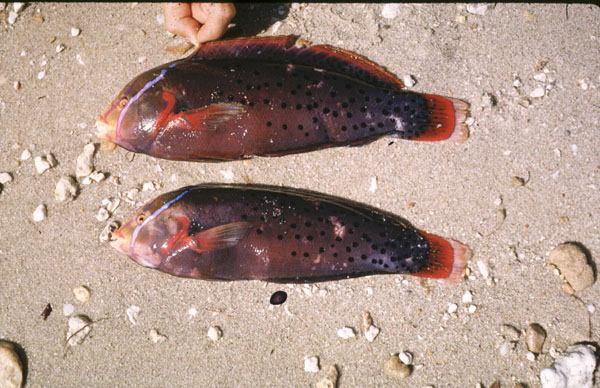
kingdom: Animalia
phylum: Chordata
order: Perciformes
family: Labridae
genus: Coris
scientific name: Coris formosa
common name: Queen coris
